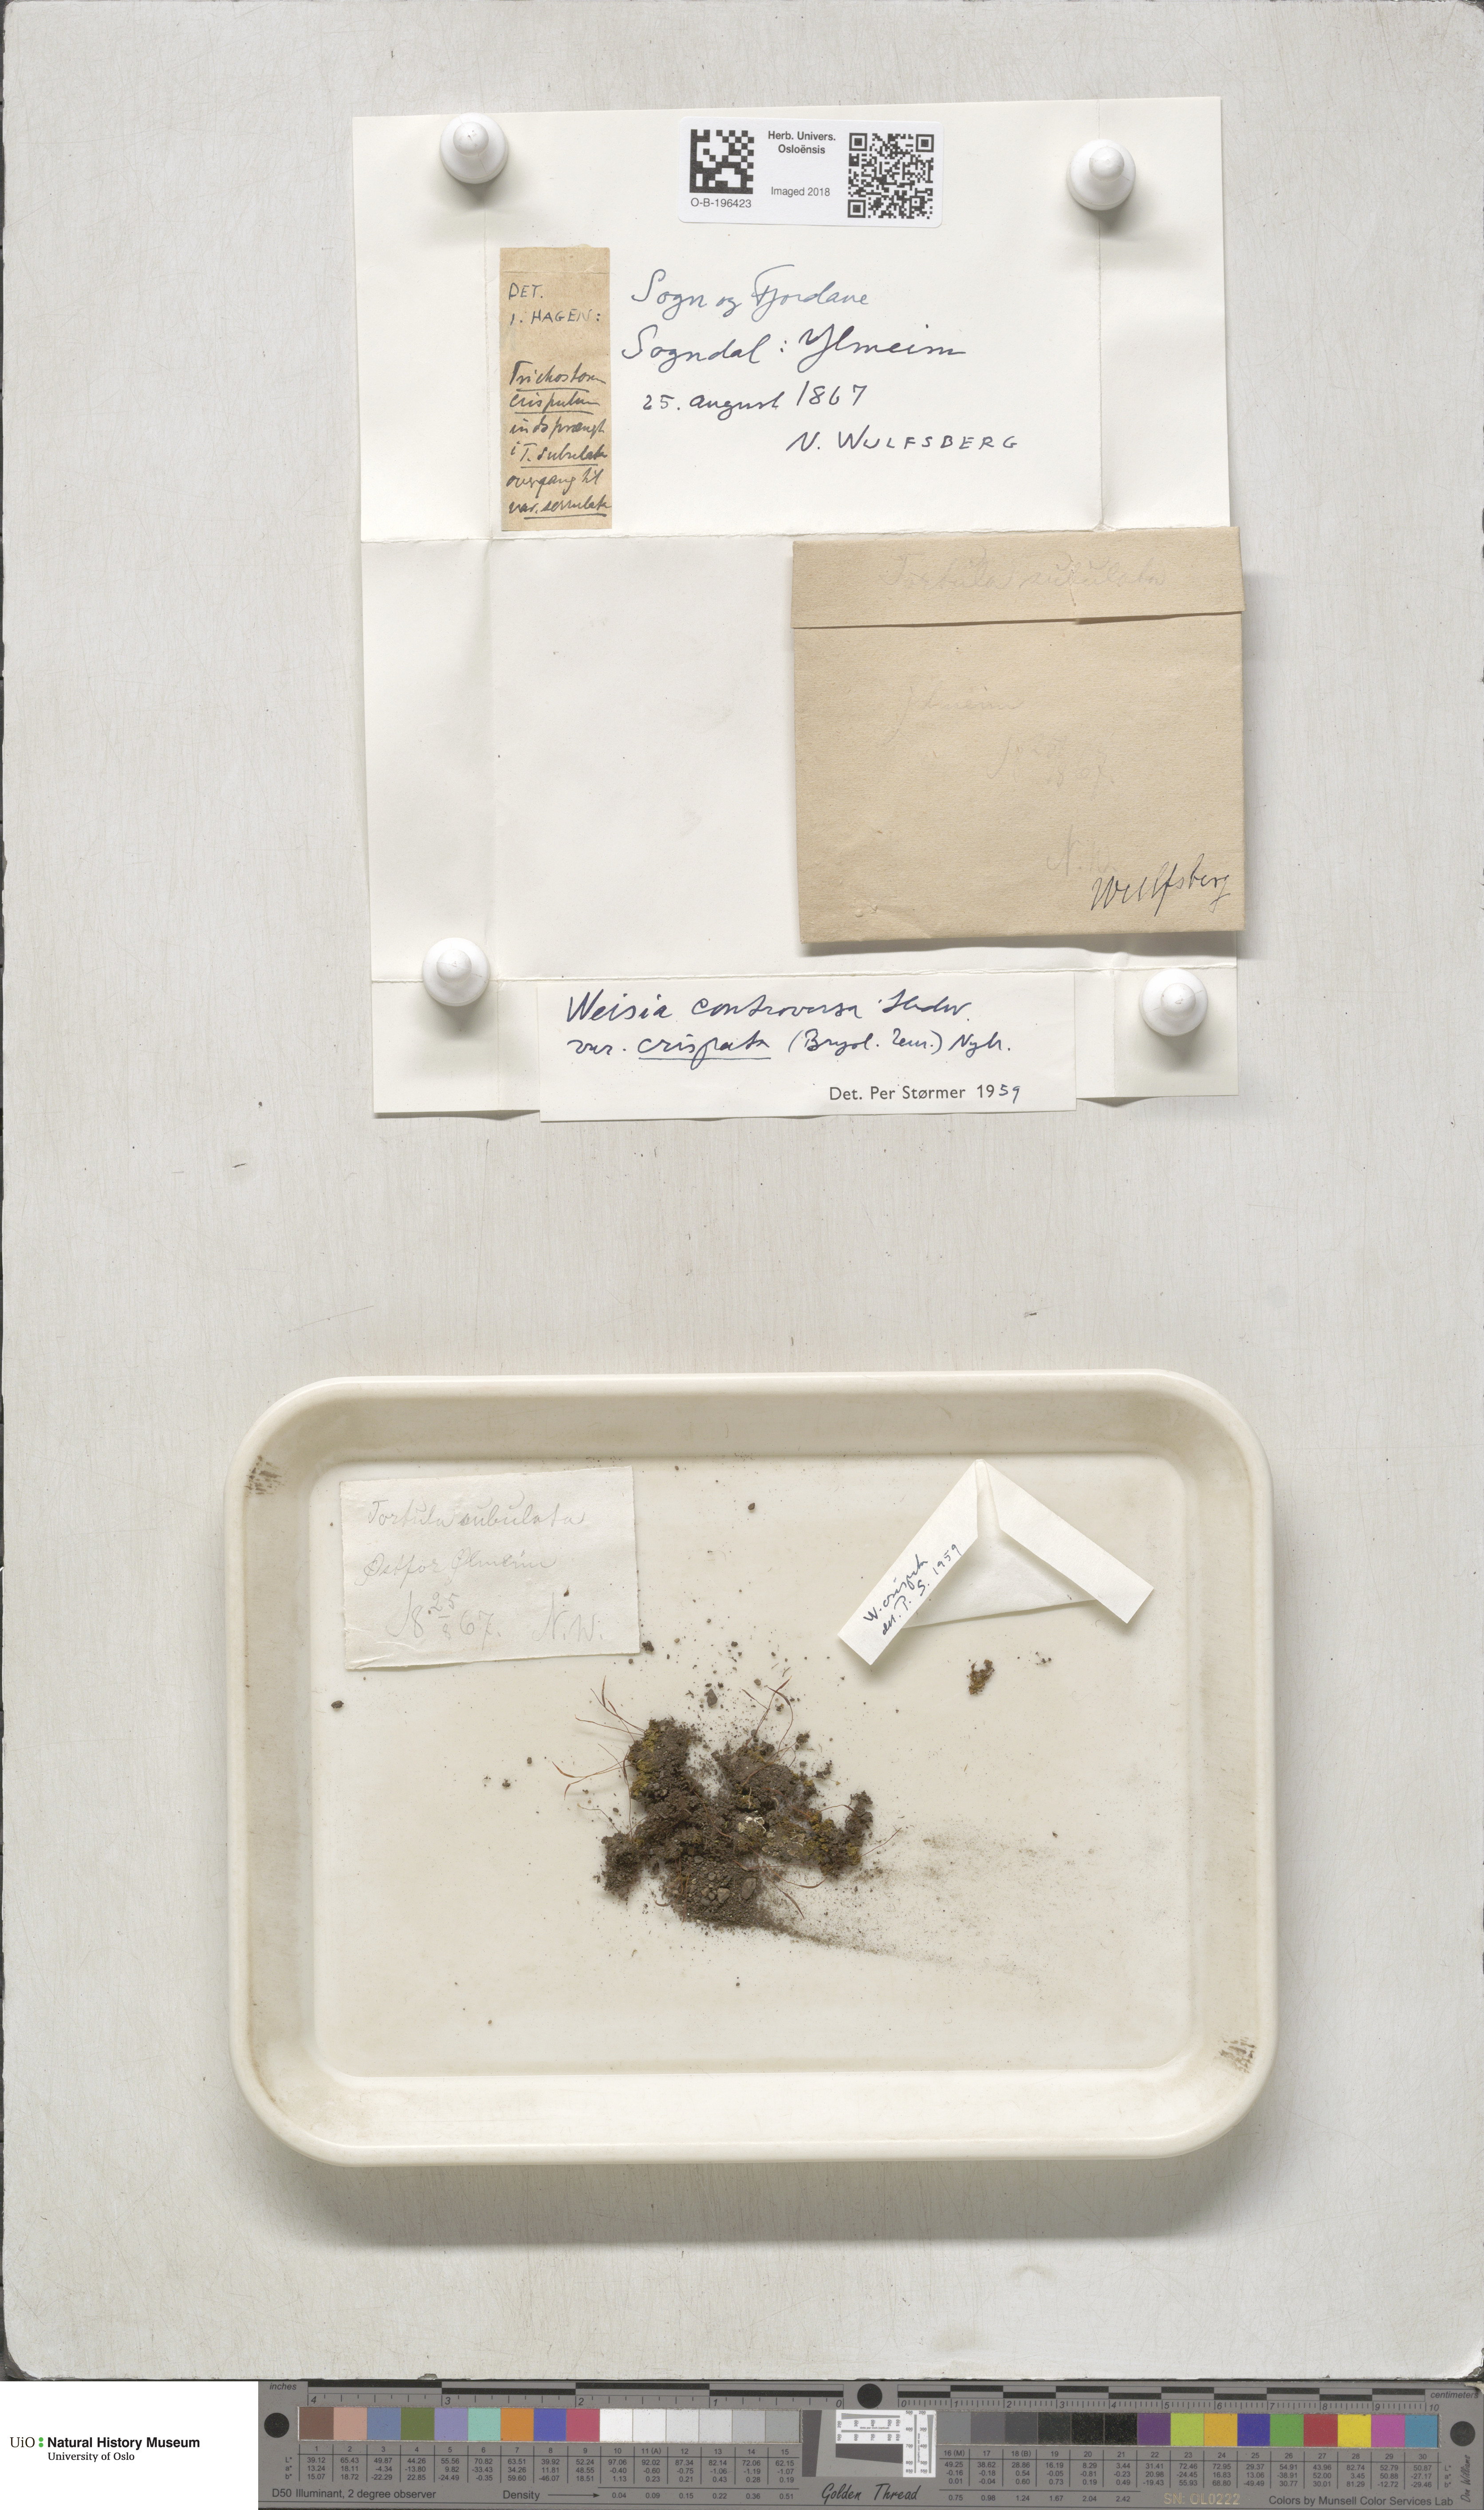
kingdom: Plantae
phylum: Bryophyta
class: Bryopsida
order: Pottiales
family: Pottiaceae
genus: Weissia
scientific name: Weissia controversa
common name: Green-tufted stubble moss
